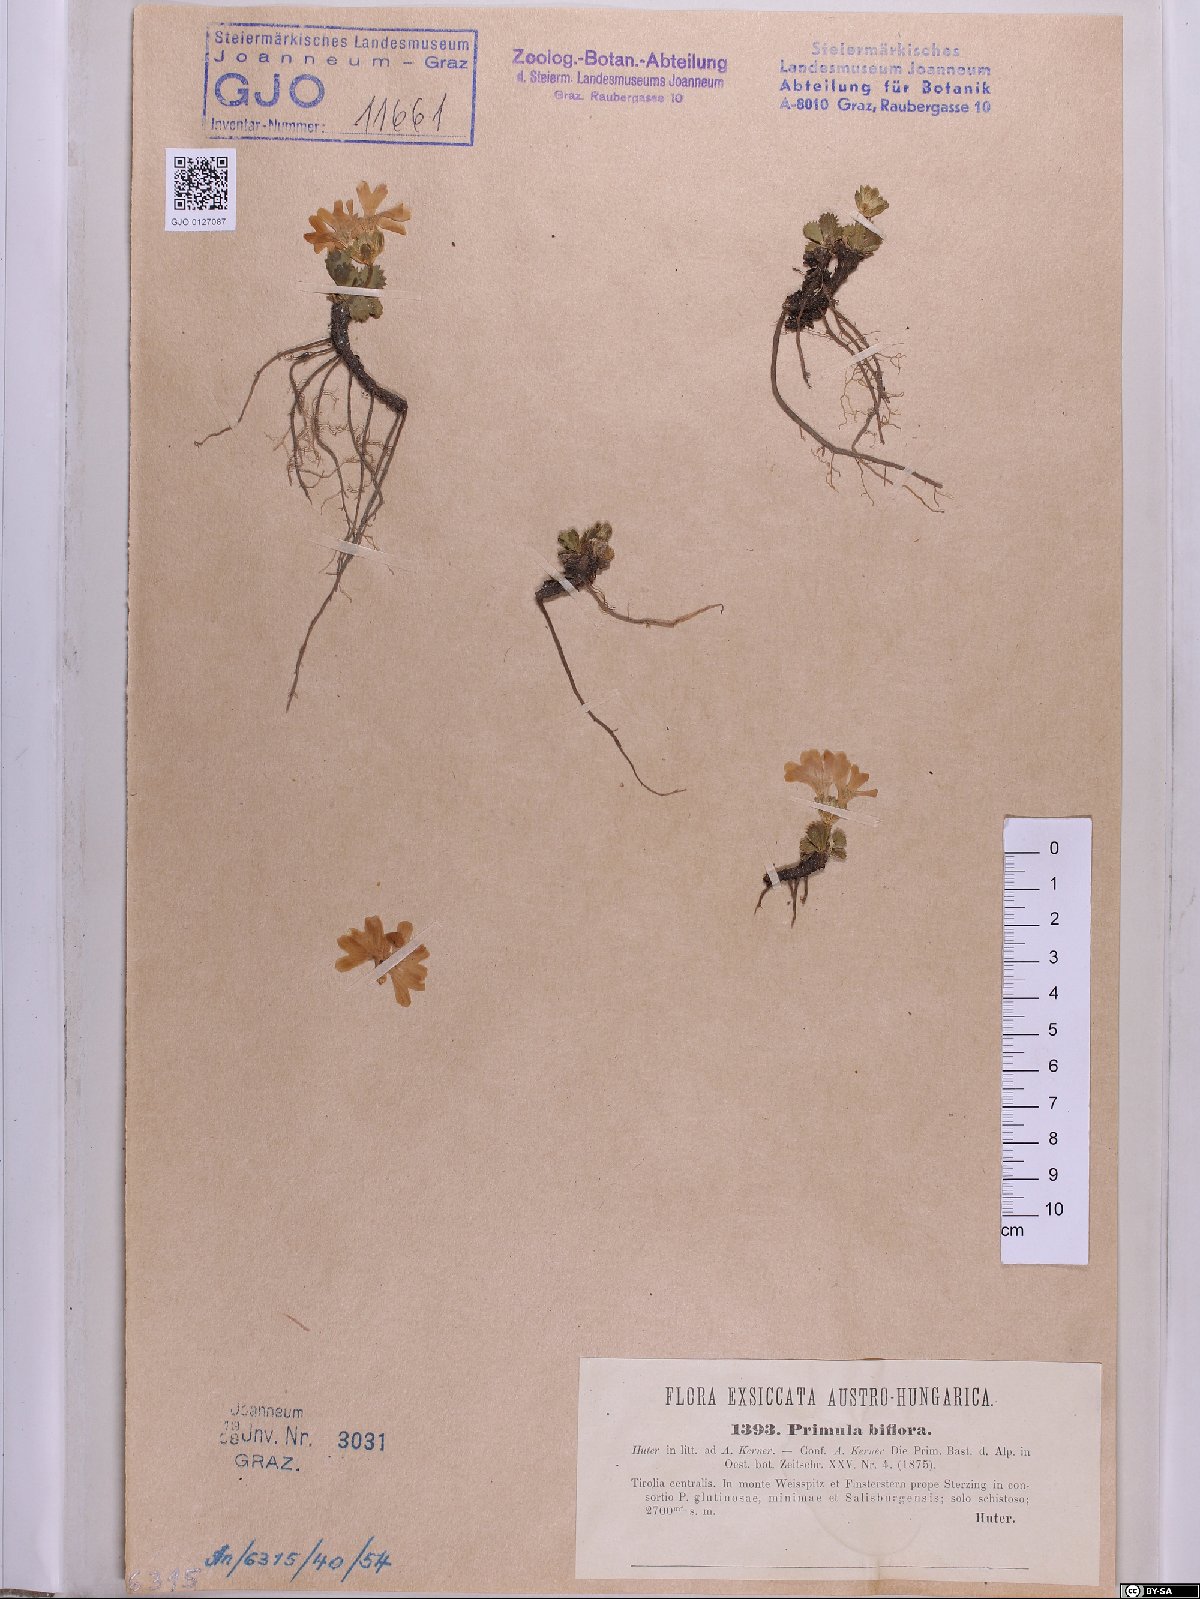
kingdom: Plantae
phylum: Tracheophyta
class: Magnoliopsida
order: Ericales
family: Primulaceae
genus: Primula
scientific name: Primula floerkeana
